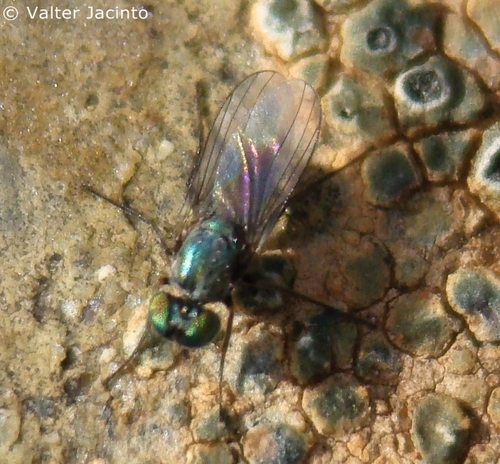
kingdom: Animalia
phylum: Arthropoda
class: Insecta
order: Diptera
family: Dolichopodidae
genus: Chrysotus
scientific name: Chrysotus
